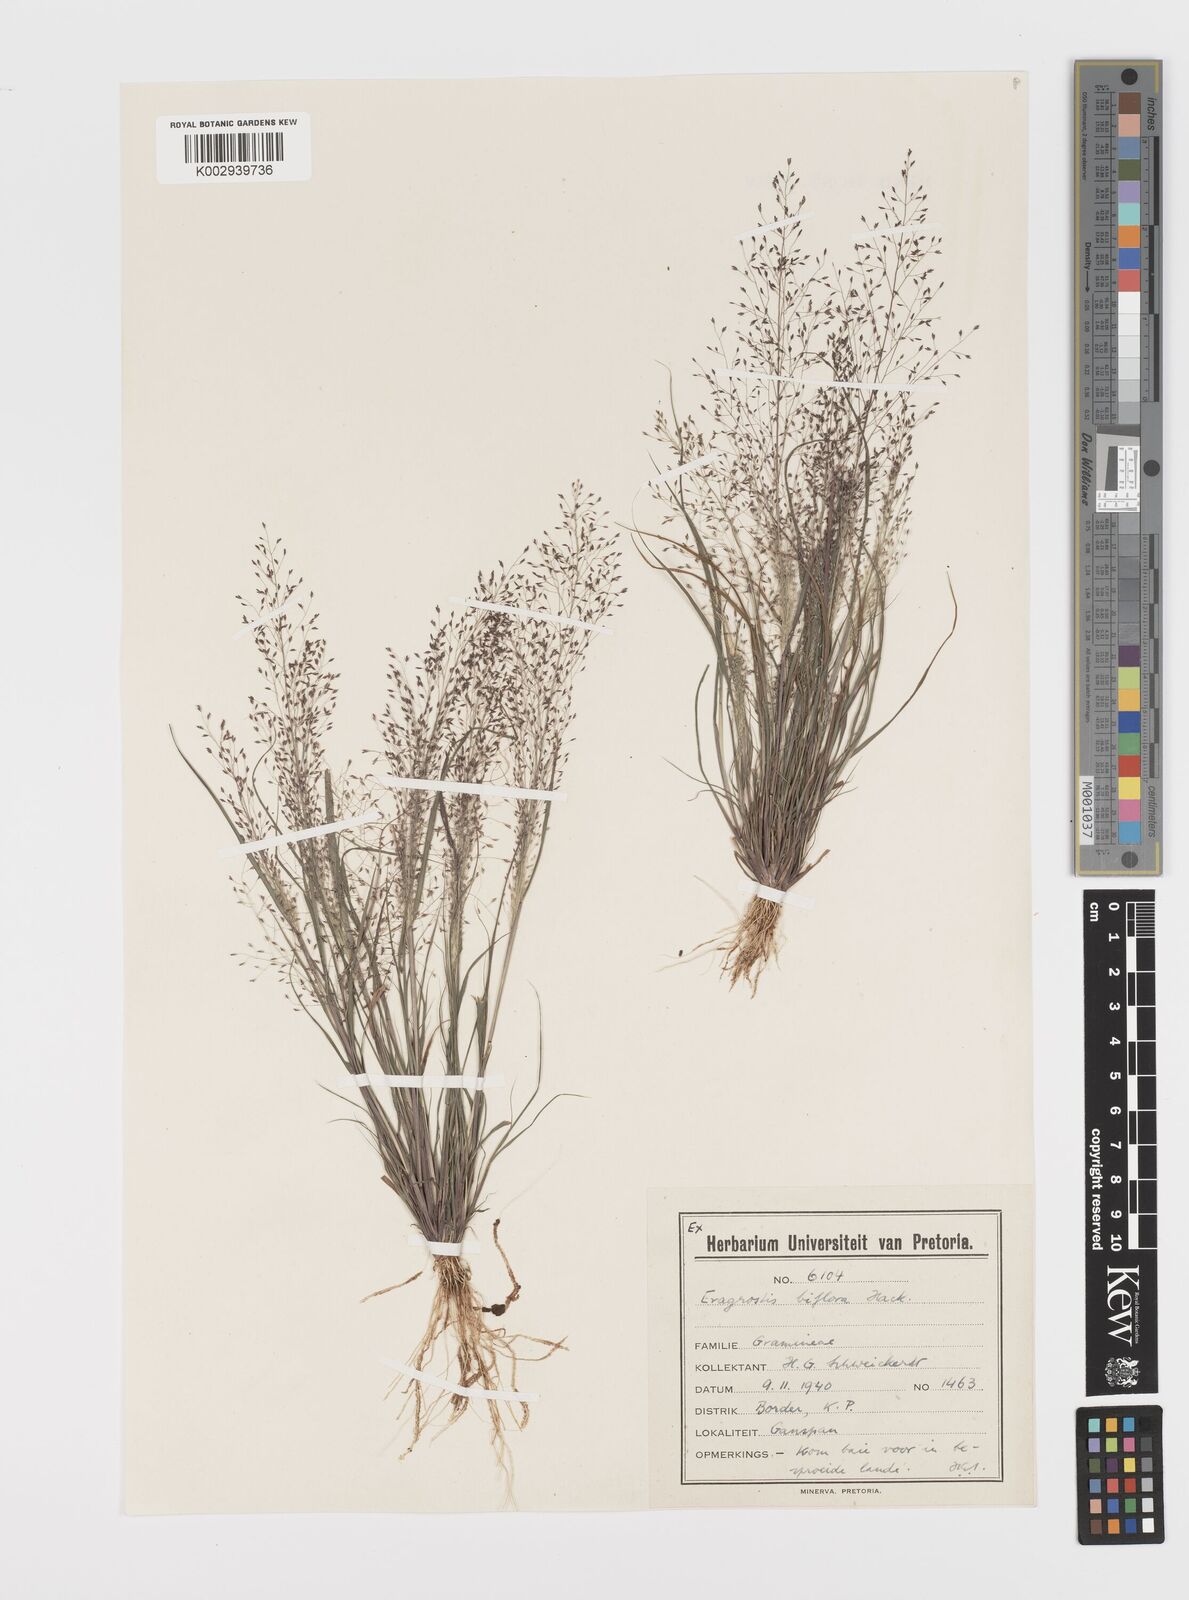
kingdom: Plantae
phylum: Tracheophyta
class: Liliopsida
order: Poales
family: Poaceae
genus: Eragrostis
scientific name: Eragrostis biflora
